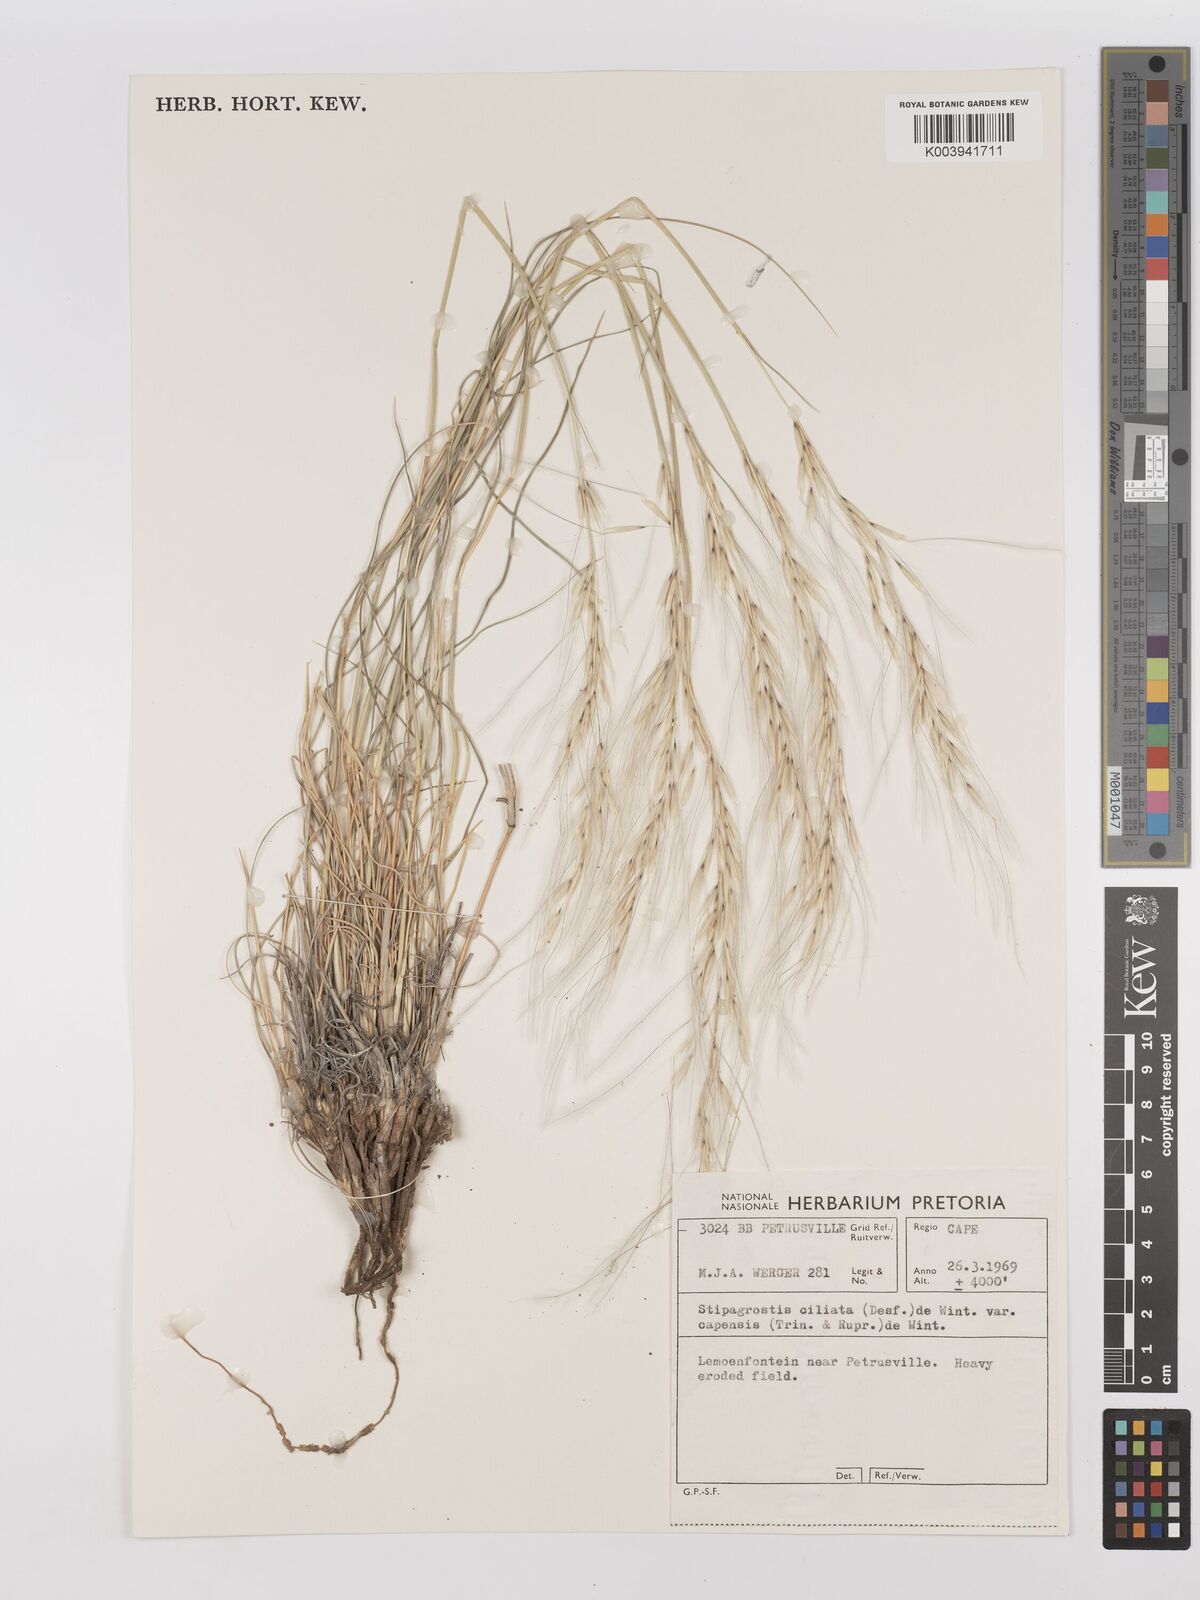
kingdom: Plantae
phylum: Tracheophyta
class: Liliopsida
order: Poales
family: Poaceae
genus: Stipagrostis
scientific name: Stipagrostis ciliata
